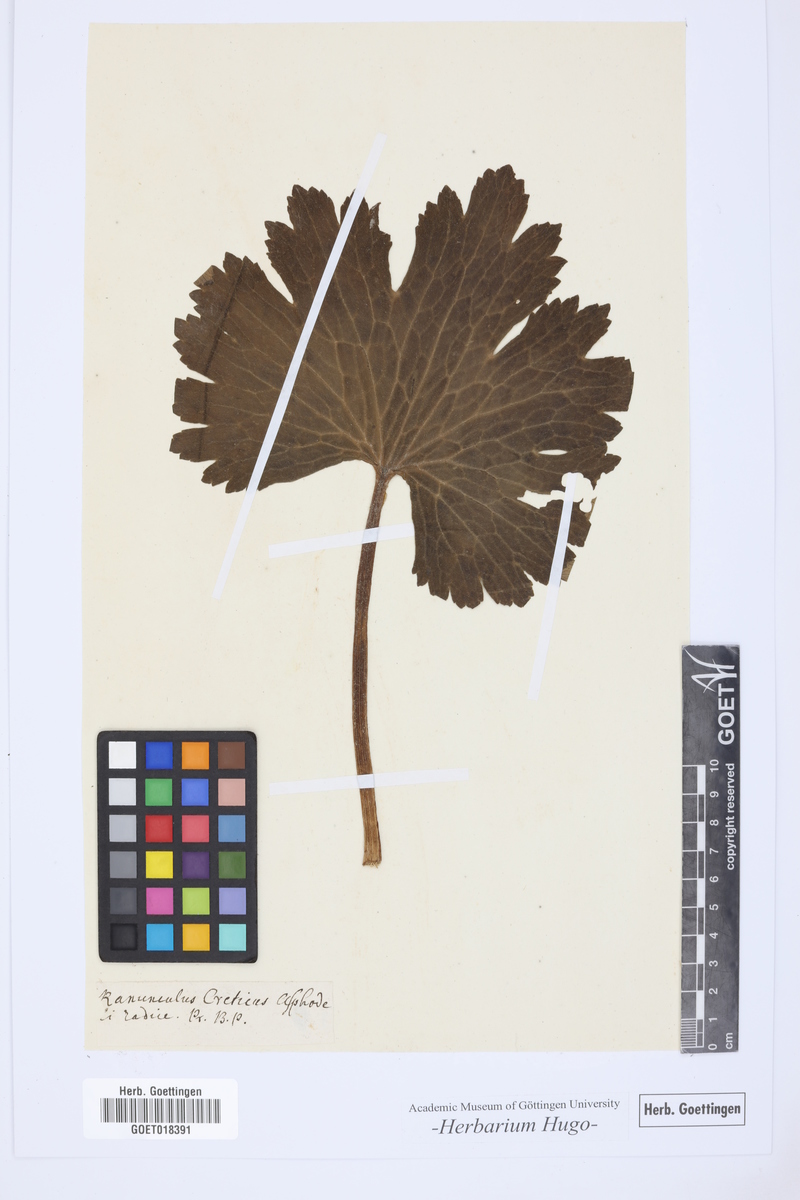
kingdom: Plantae
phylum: Tracheophyta
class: Magnoliopsida
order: Ranunculales
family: Ranunculaceae
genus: Ranunculus
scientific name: Ranunculus creticus
